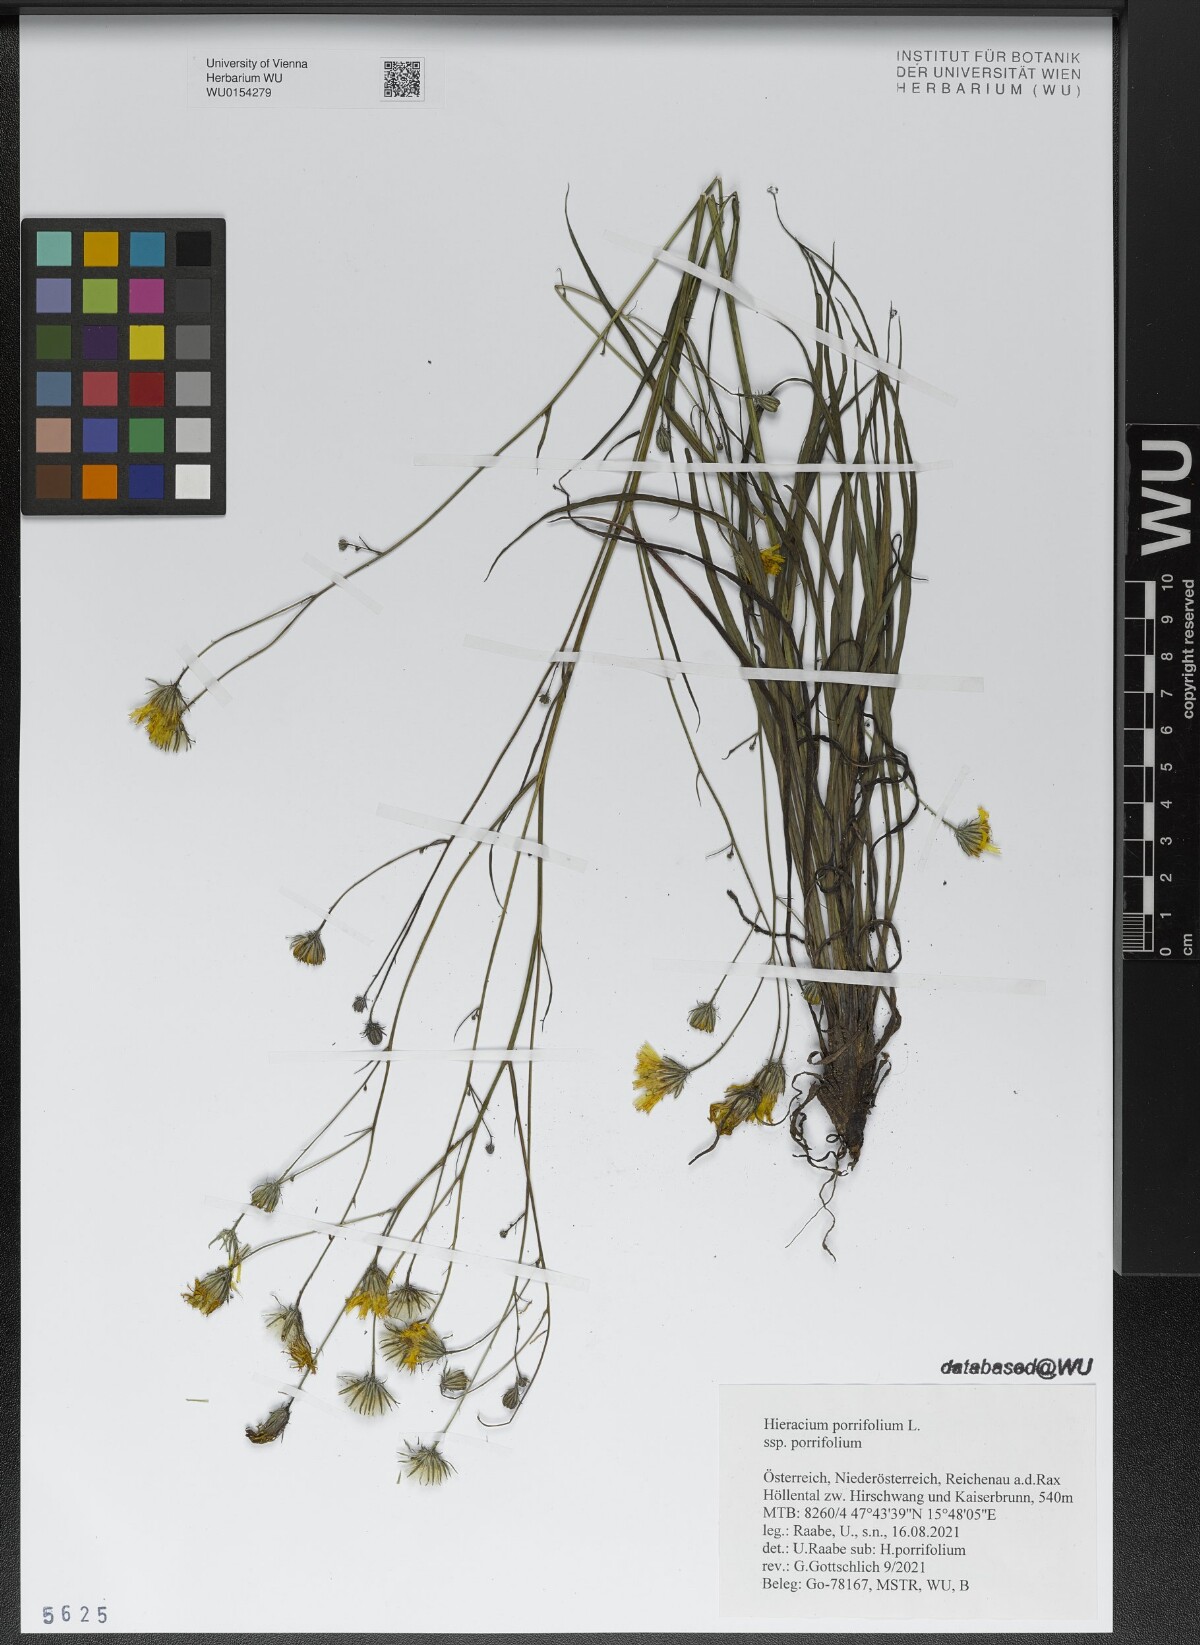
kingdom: Plantae
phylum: Tracheophyta
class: Magnoliopsida
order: Asterales
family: Asteraceae
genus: Hieracium
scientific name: Hieracium porrifolium
